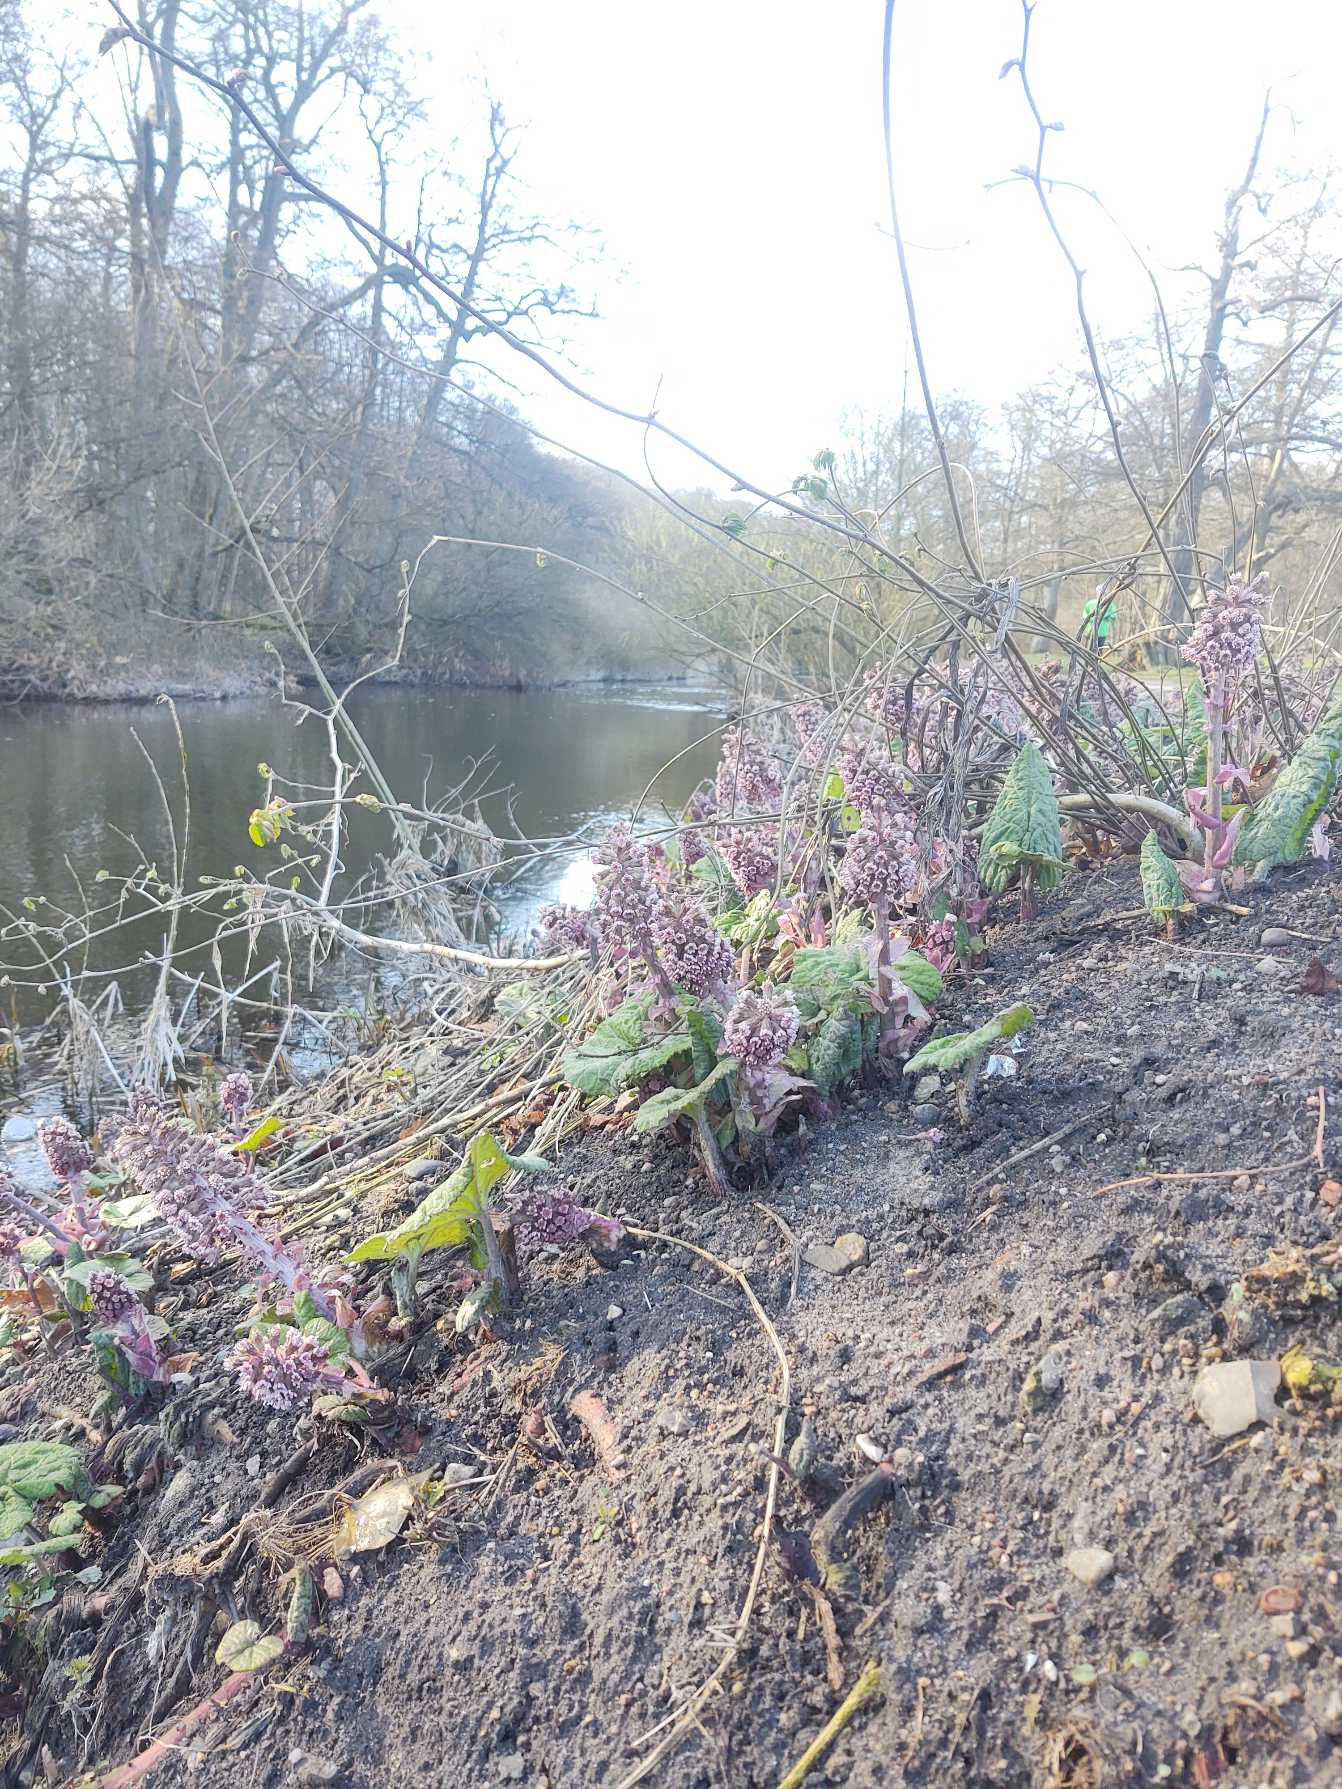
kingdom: Plantae
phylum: Tracheophyta
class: Magnoliopsida
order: Asterales
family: Asteraceae
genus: Petasites
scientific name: Petasites hybridus
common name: Rød hestehov
